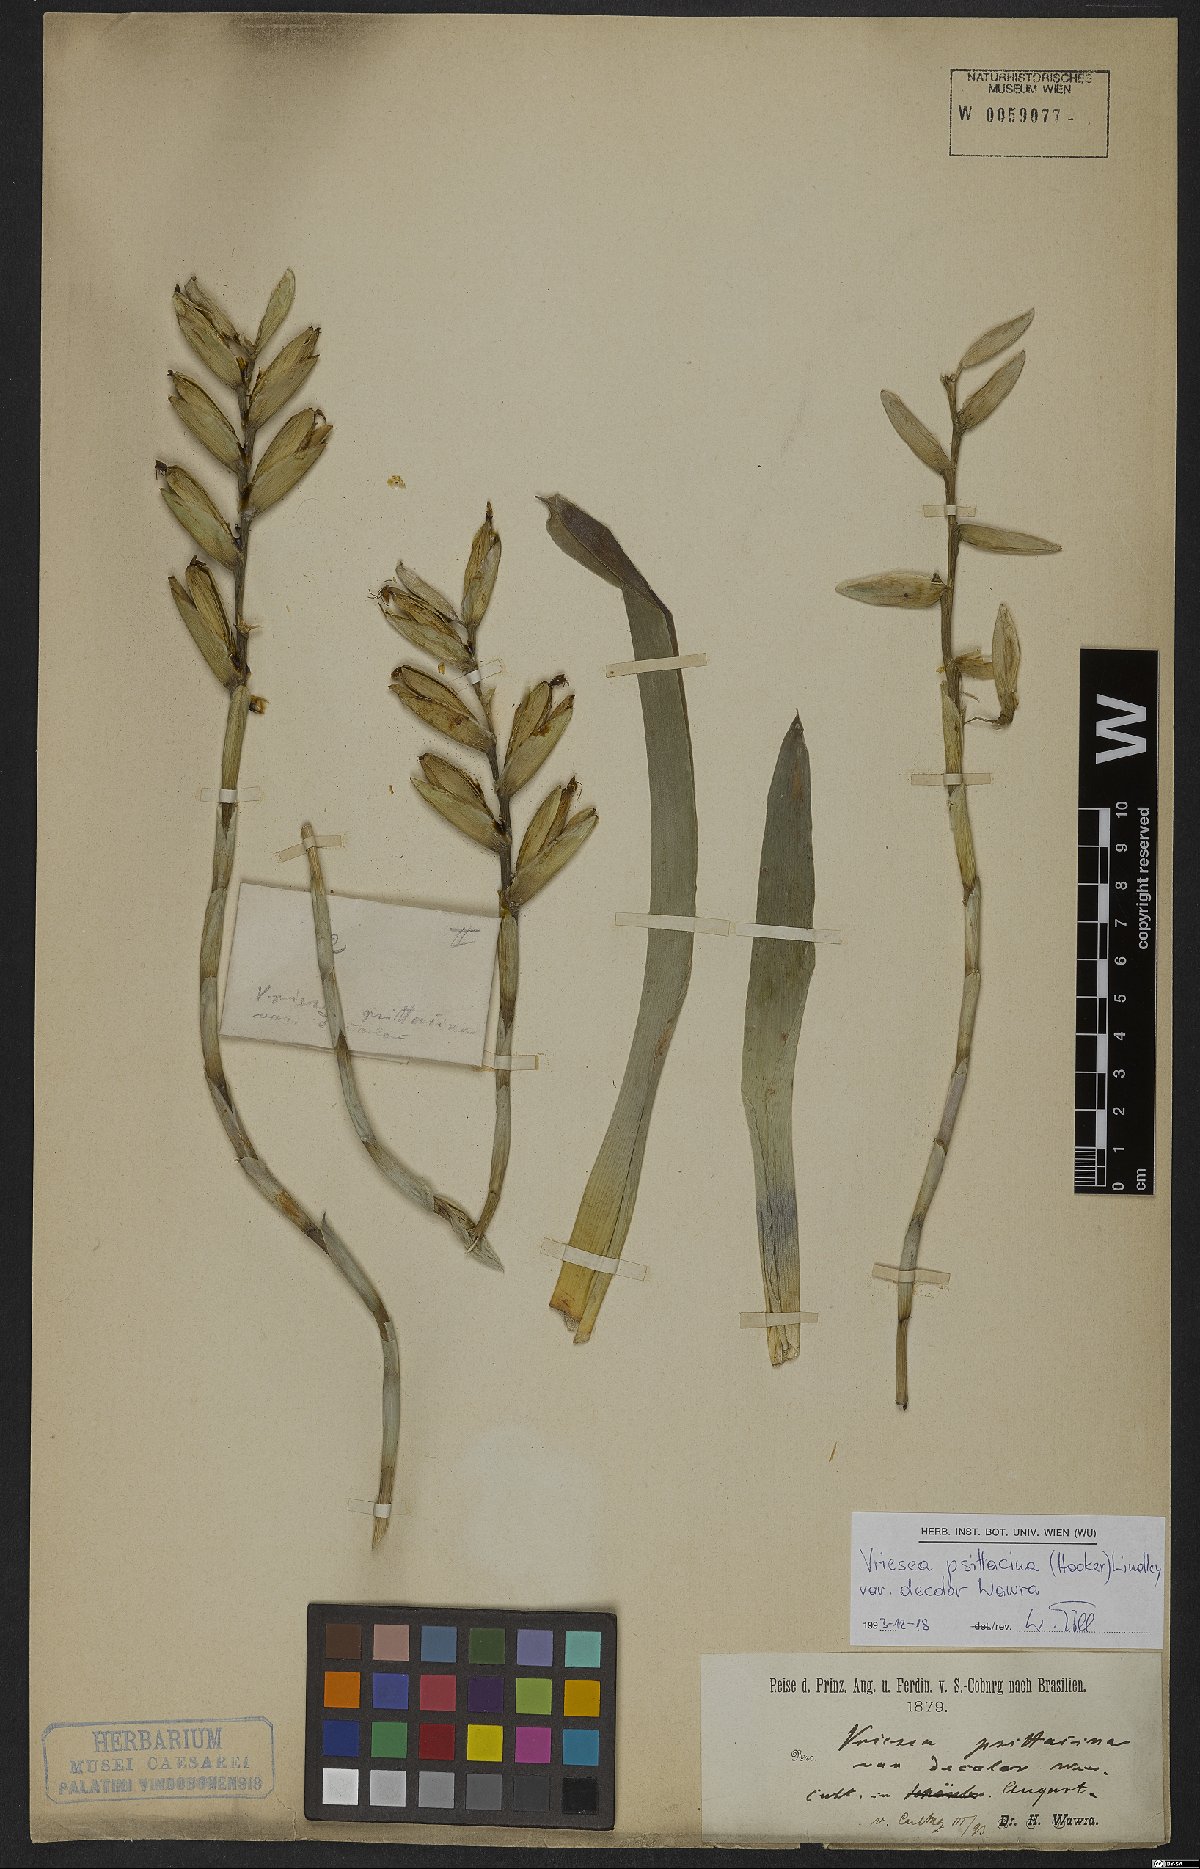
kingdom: Plantae
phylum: Tracheophyta
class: Liliopsida
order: Poales
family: Bromeliaceae
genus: Vriesea
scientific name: Vriesea psittacina
